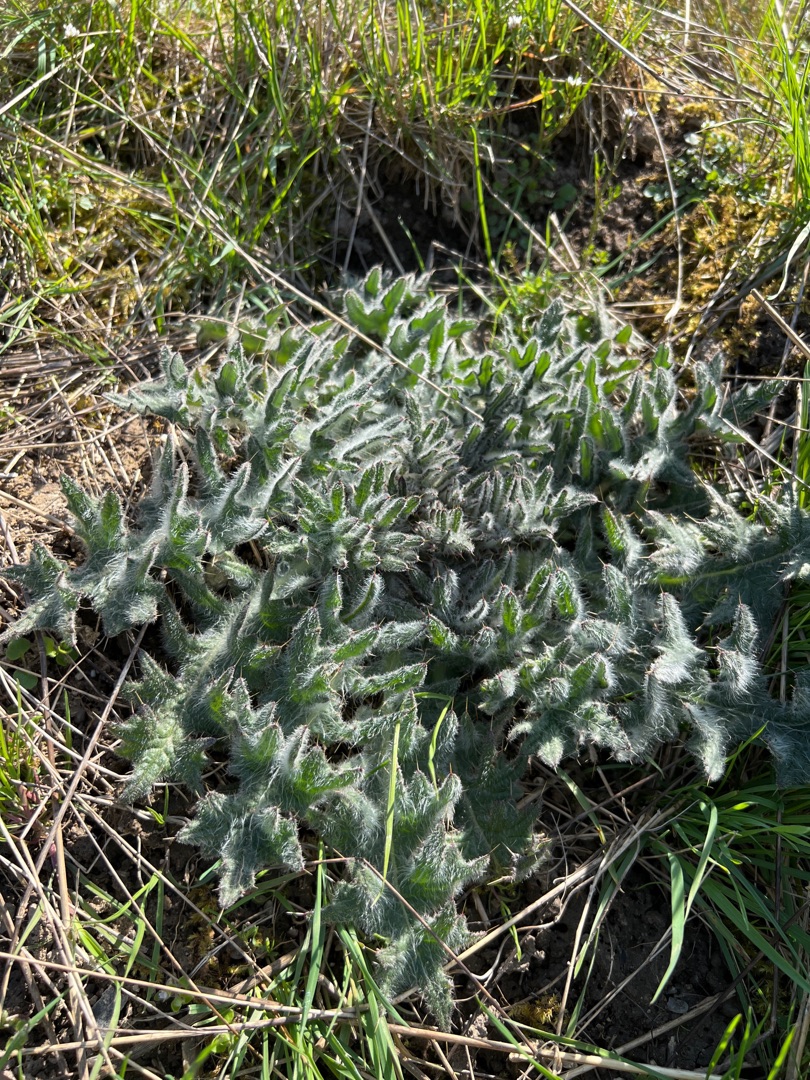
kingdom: Plantae
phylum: Tracheophyta
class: Magnoliopsida
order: Asterales
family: Asteraceae
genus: Cirsium
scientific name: Cirsium vulgare
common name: Horse-tidsel
